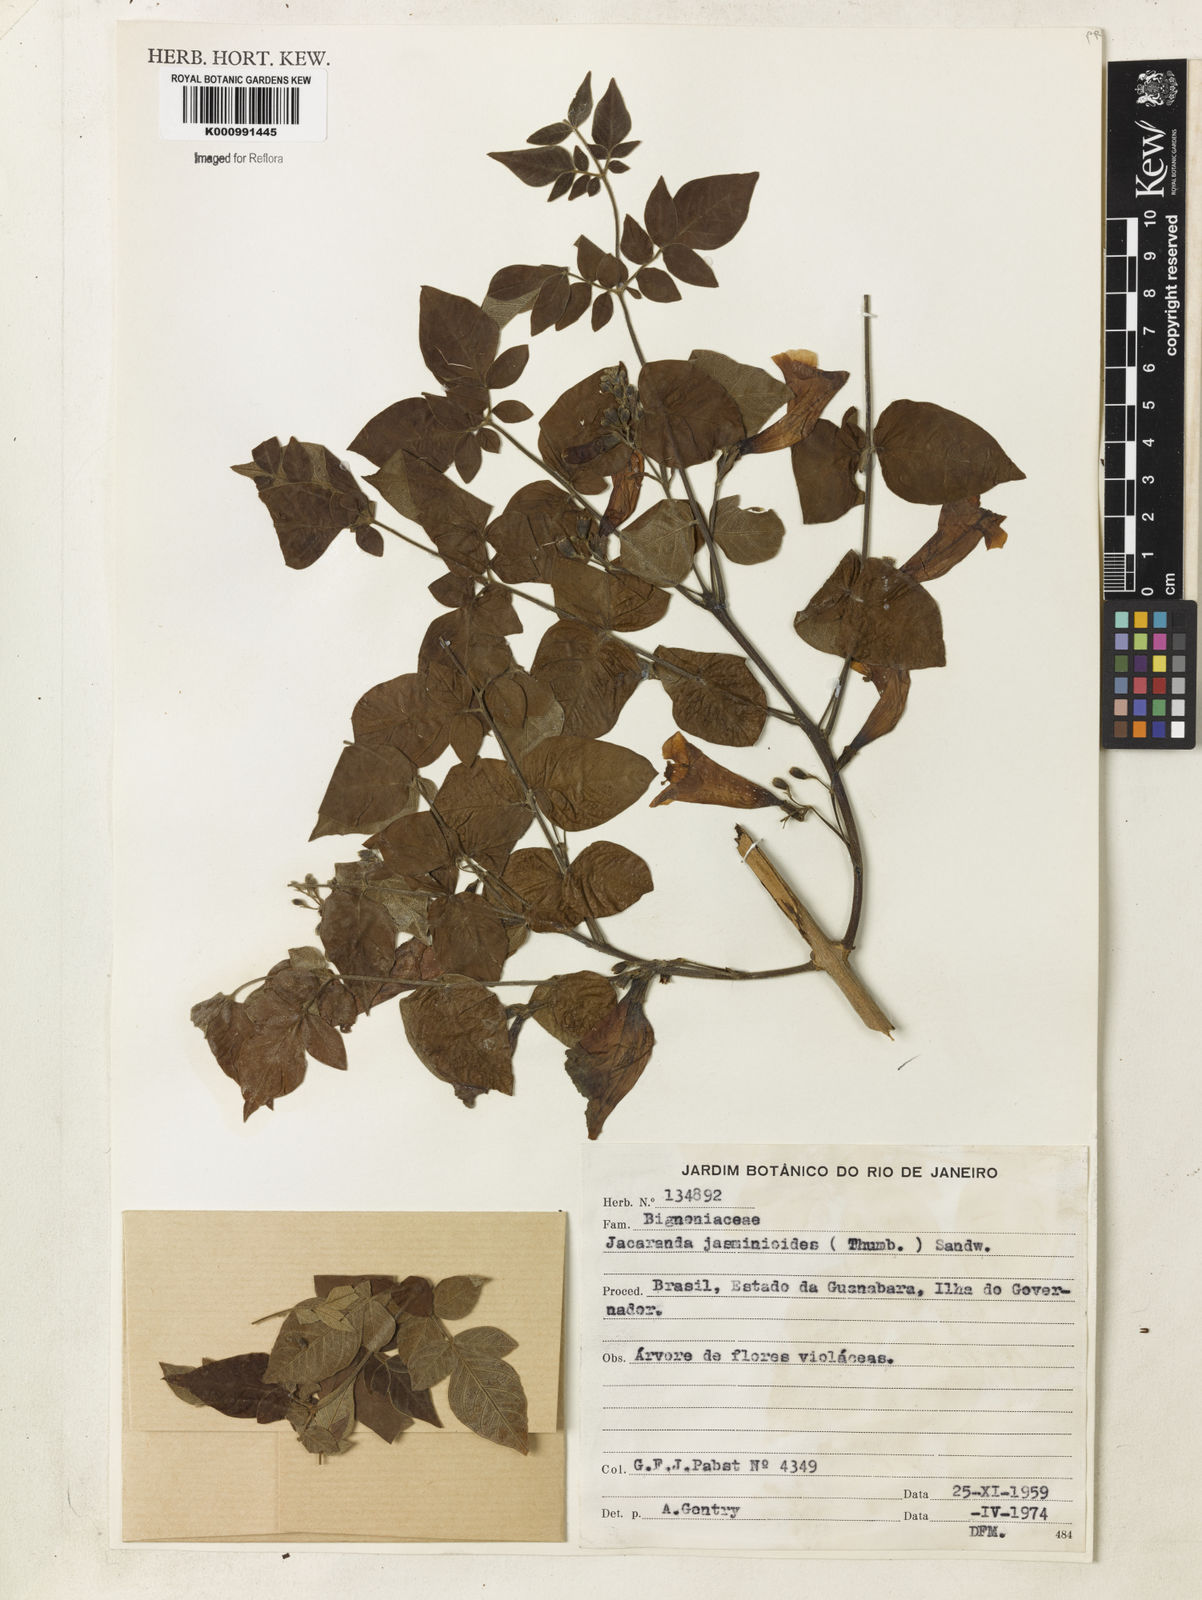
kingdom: Plantae
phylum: Tracheophyta
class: Magnoliopsida
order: Lamiales
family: Bignoniaceae
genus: Jacaranda
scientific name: Jacaranda jasminoides
